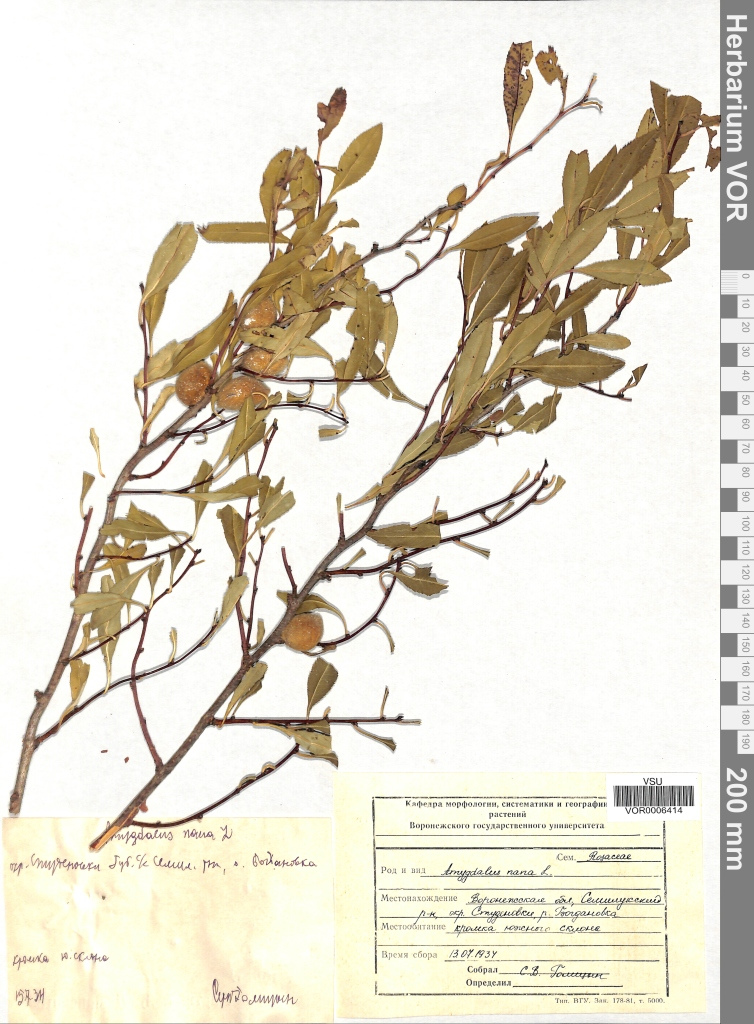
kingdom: Plantae
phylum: Tracheophyta
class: Magnoliopsida
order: Rosales
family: Rosaceae
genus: Prunus
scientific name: Prunus tenella
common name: Dwarf russian almond
